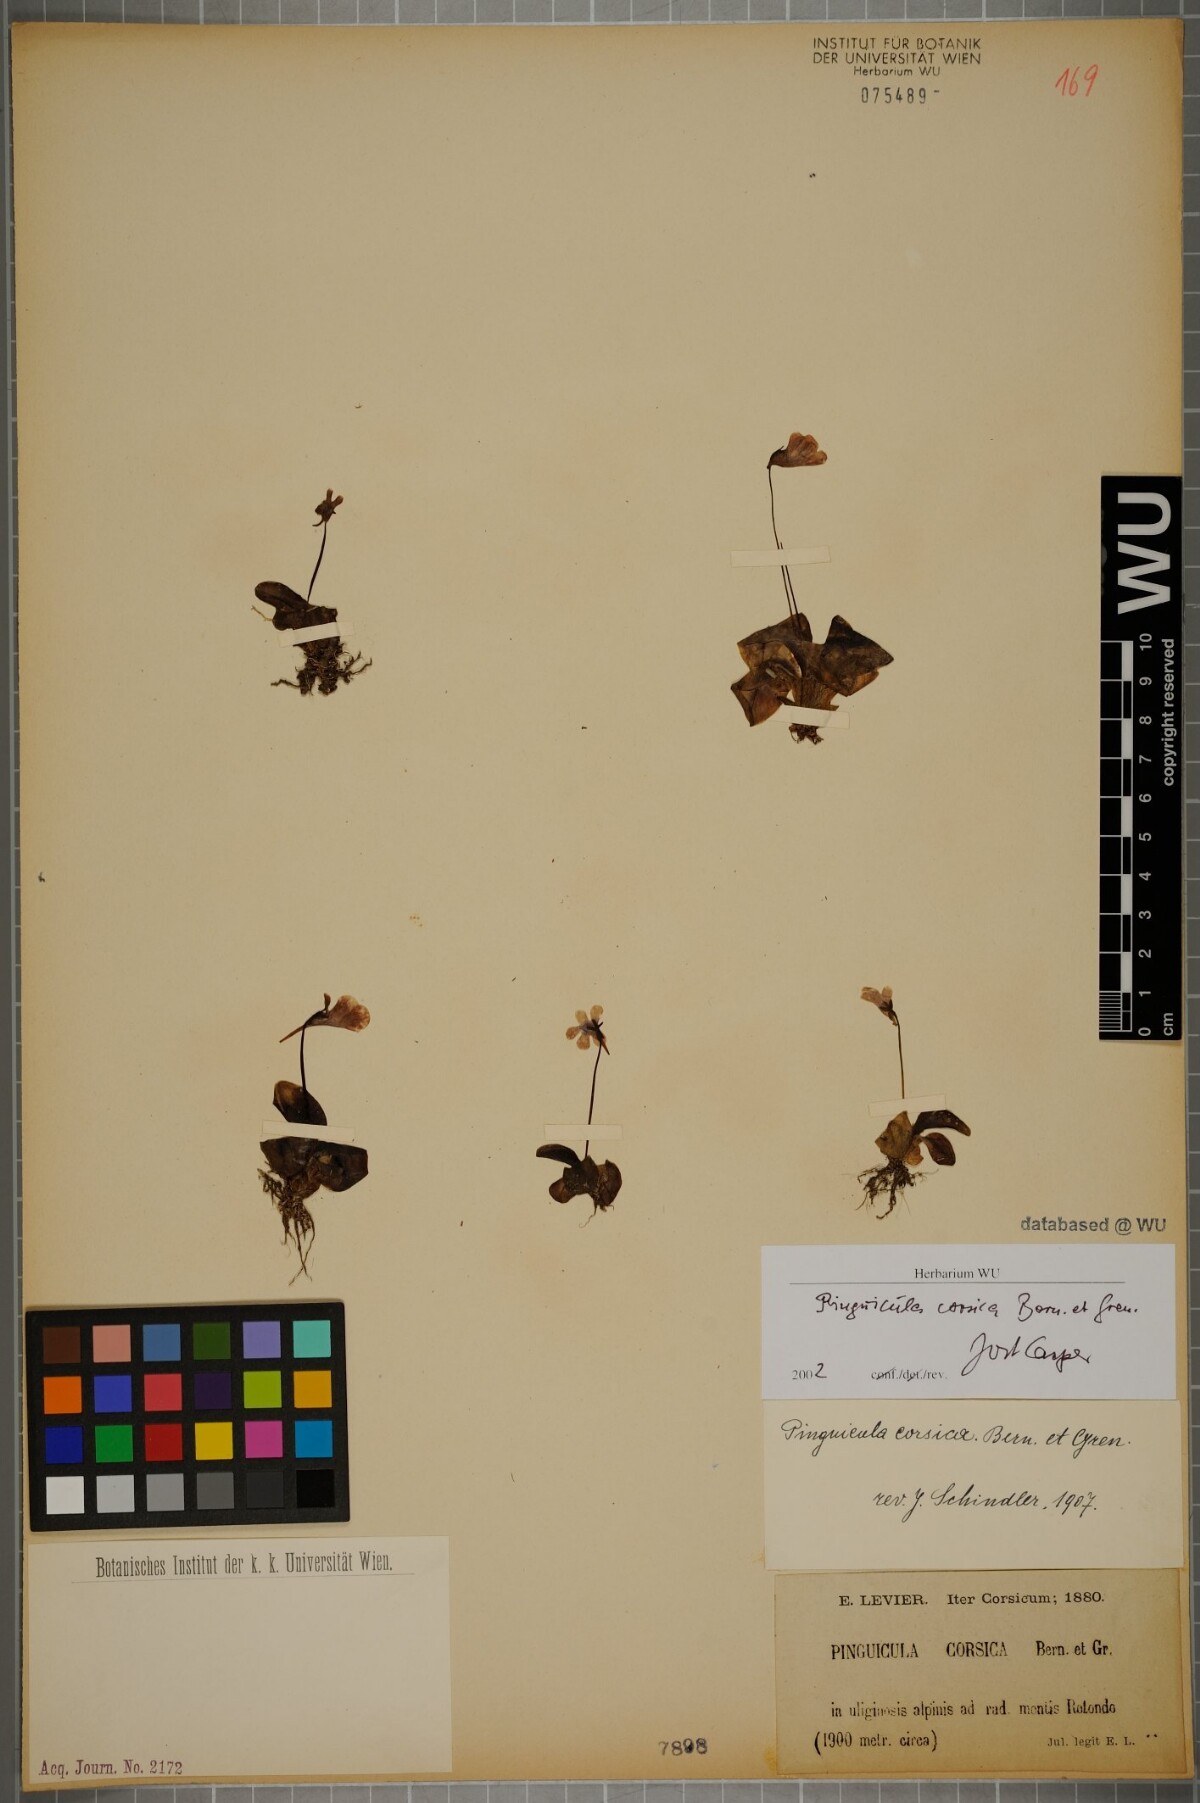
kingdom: Plantae
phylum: Tracheophyta
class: Magnoliopsida
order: Lamiales
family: Lentibulariaceae
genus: Pinguicula
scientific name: Pinguicula corsica
